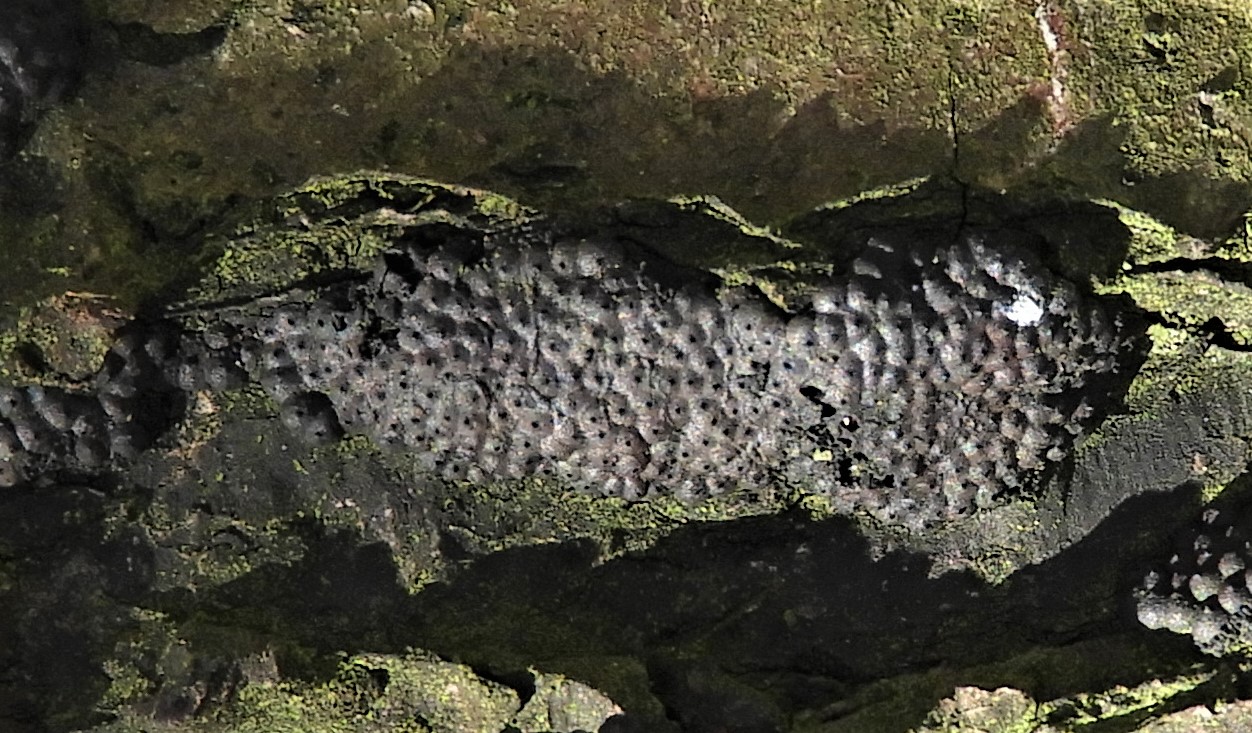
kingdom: Fungi
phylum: Ascomycota
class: Sordariomycetes
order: Xylariales
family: Hypoxylaceae
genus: Jackrogersella
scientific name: Jackrogersella multiformis
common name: foranderlig kulbær
